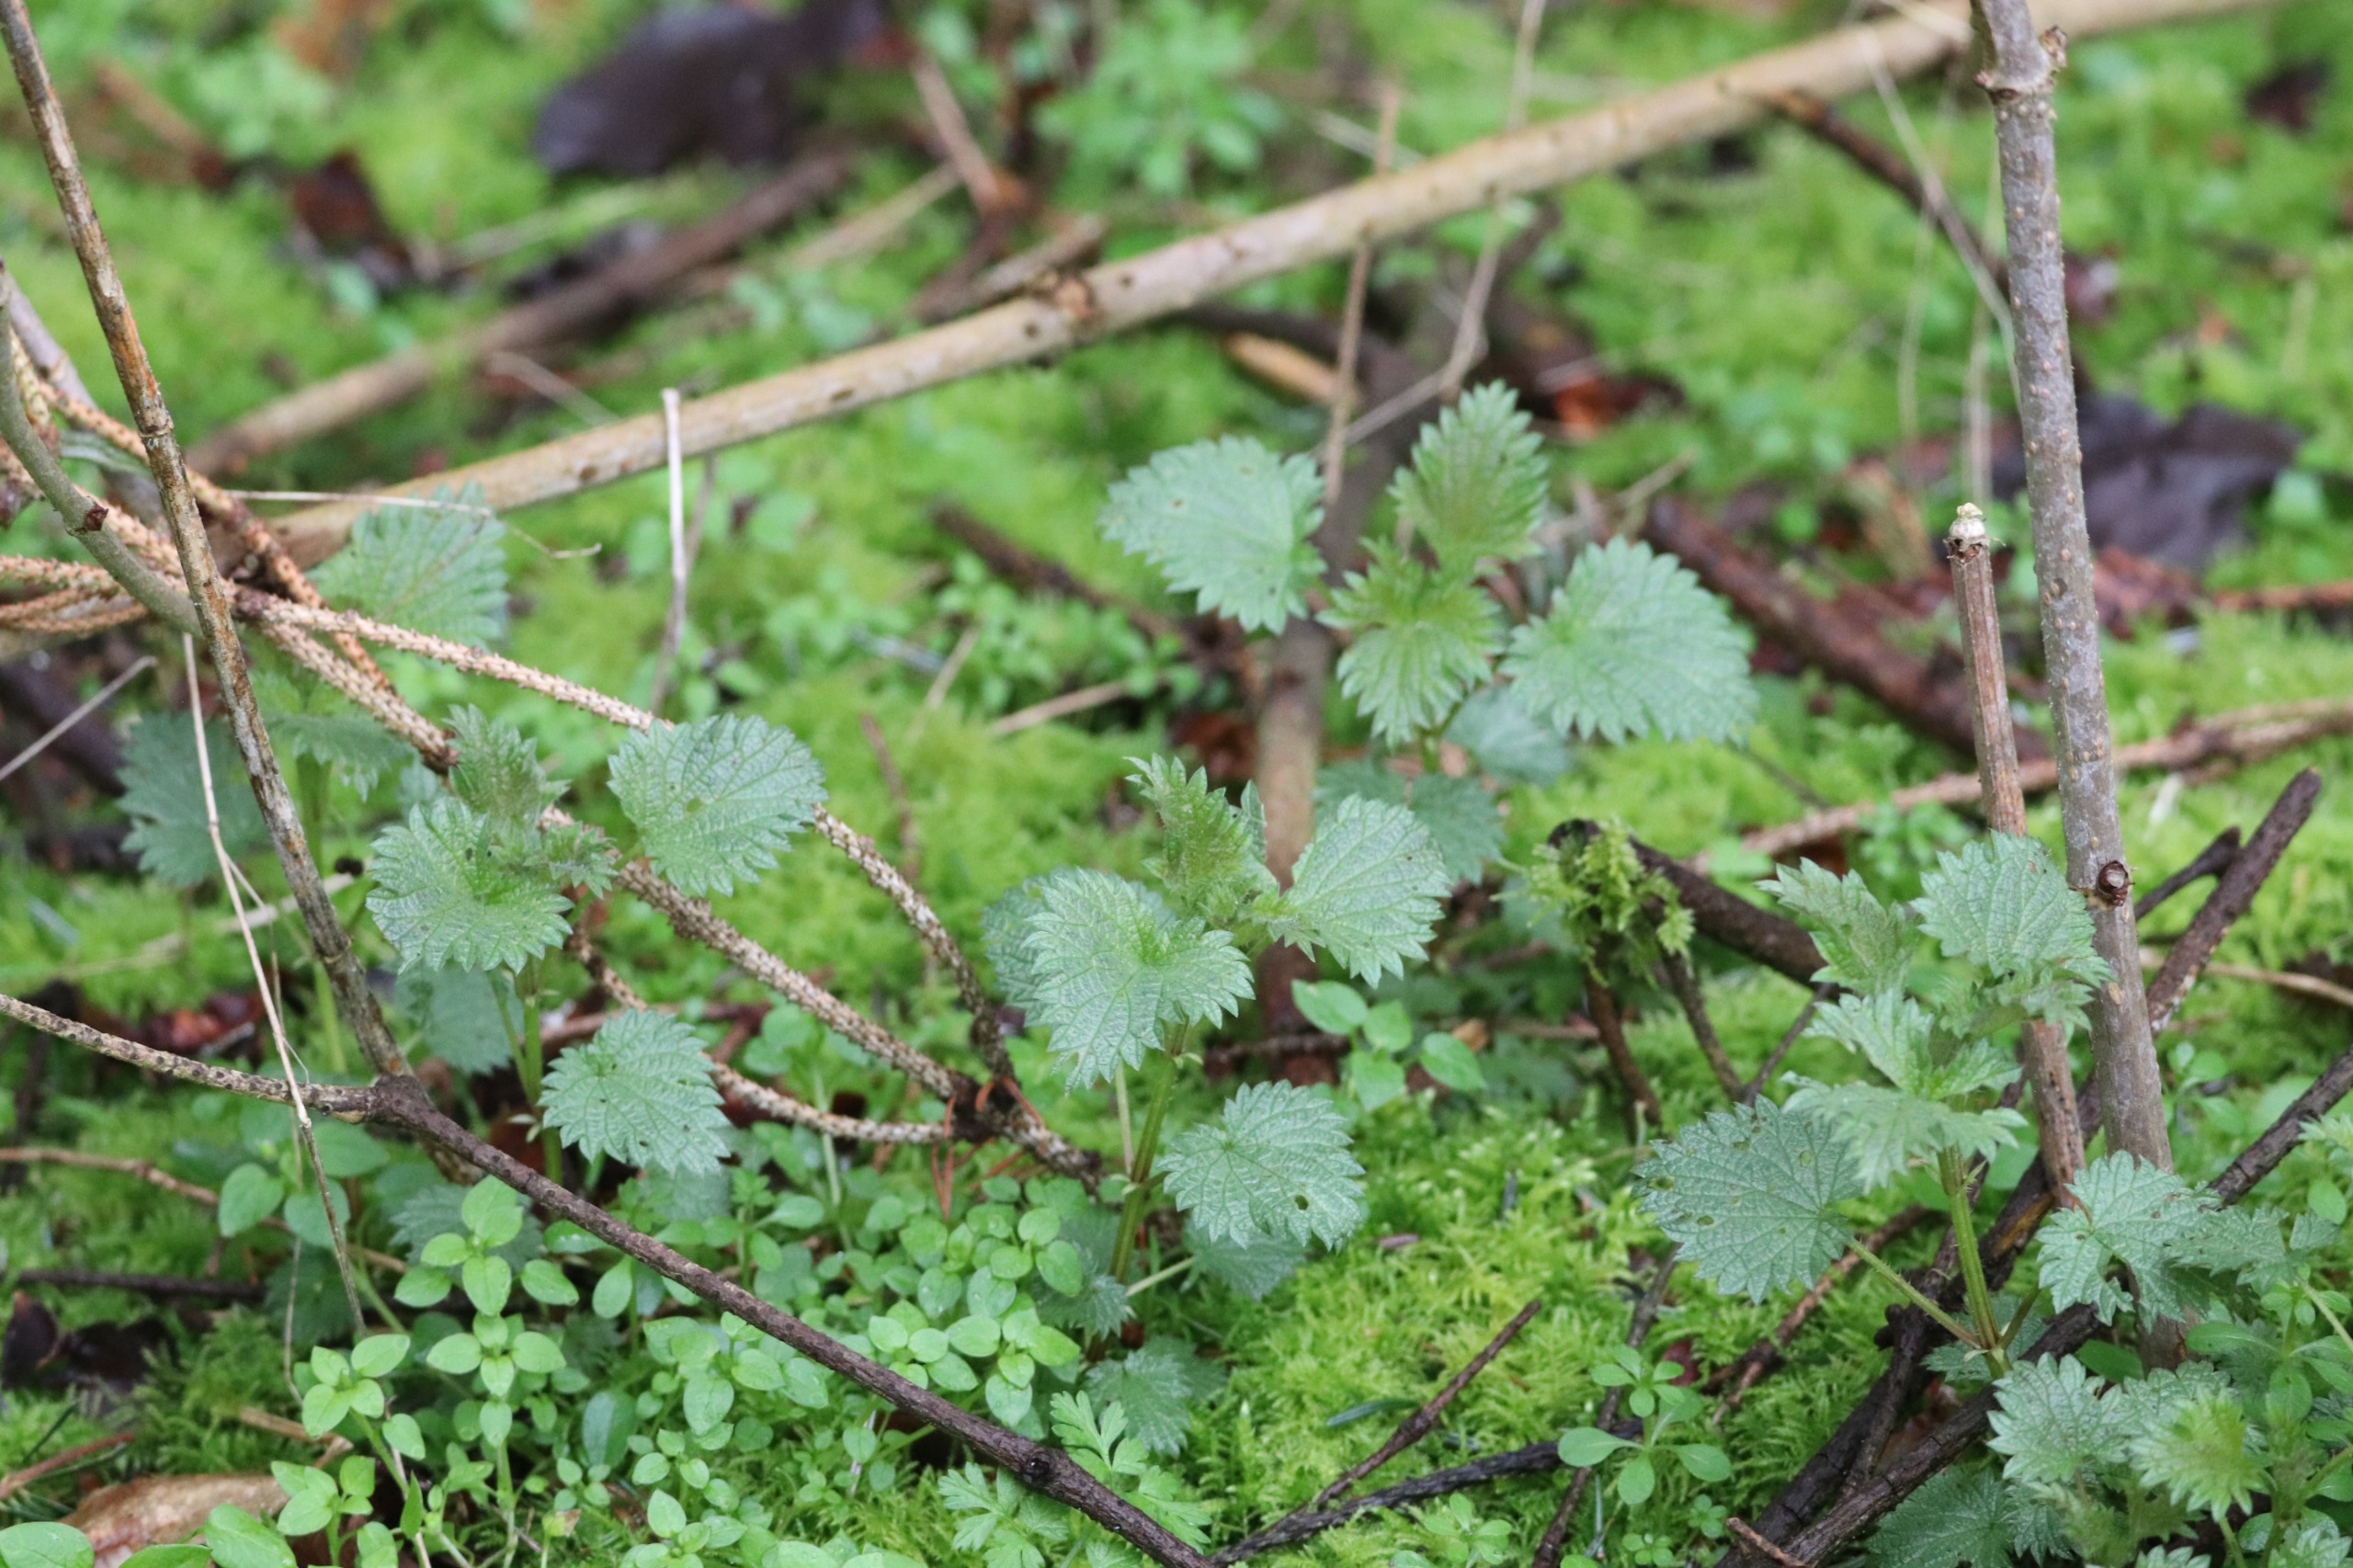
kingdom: Plantae
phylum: Tracheophyta
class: Magnoliopsida
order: Rosales
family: Urticaceae
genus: Urtica
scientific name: Urtica dioica
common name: Stor nælde
